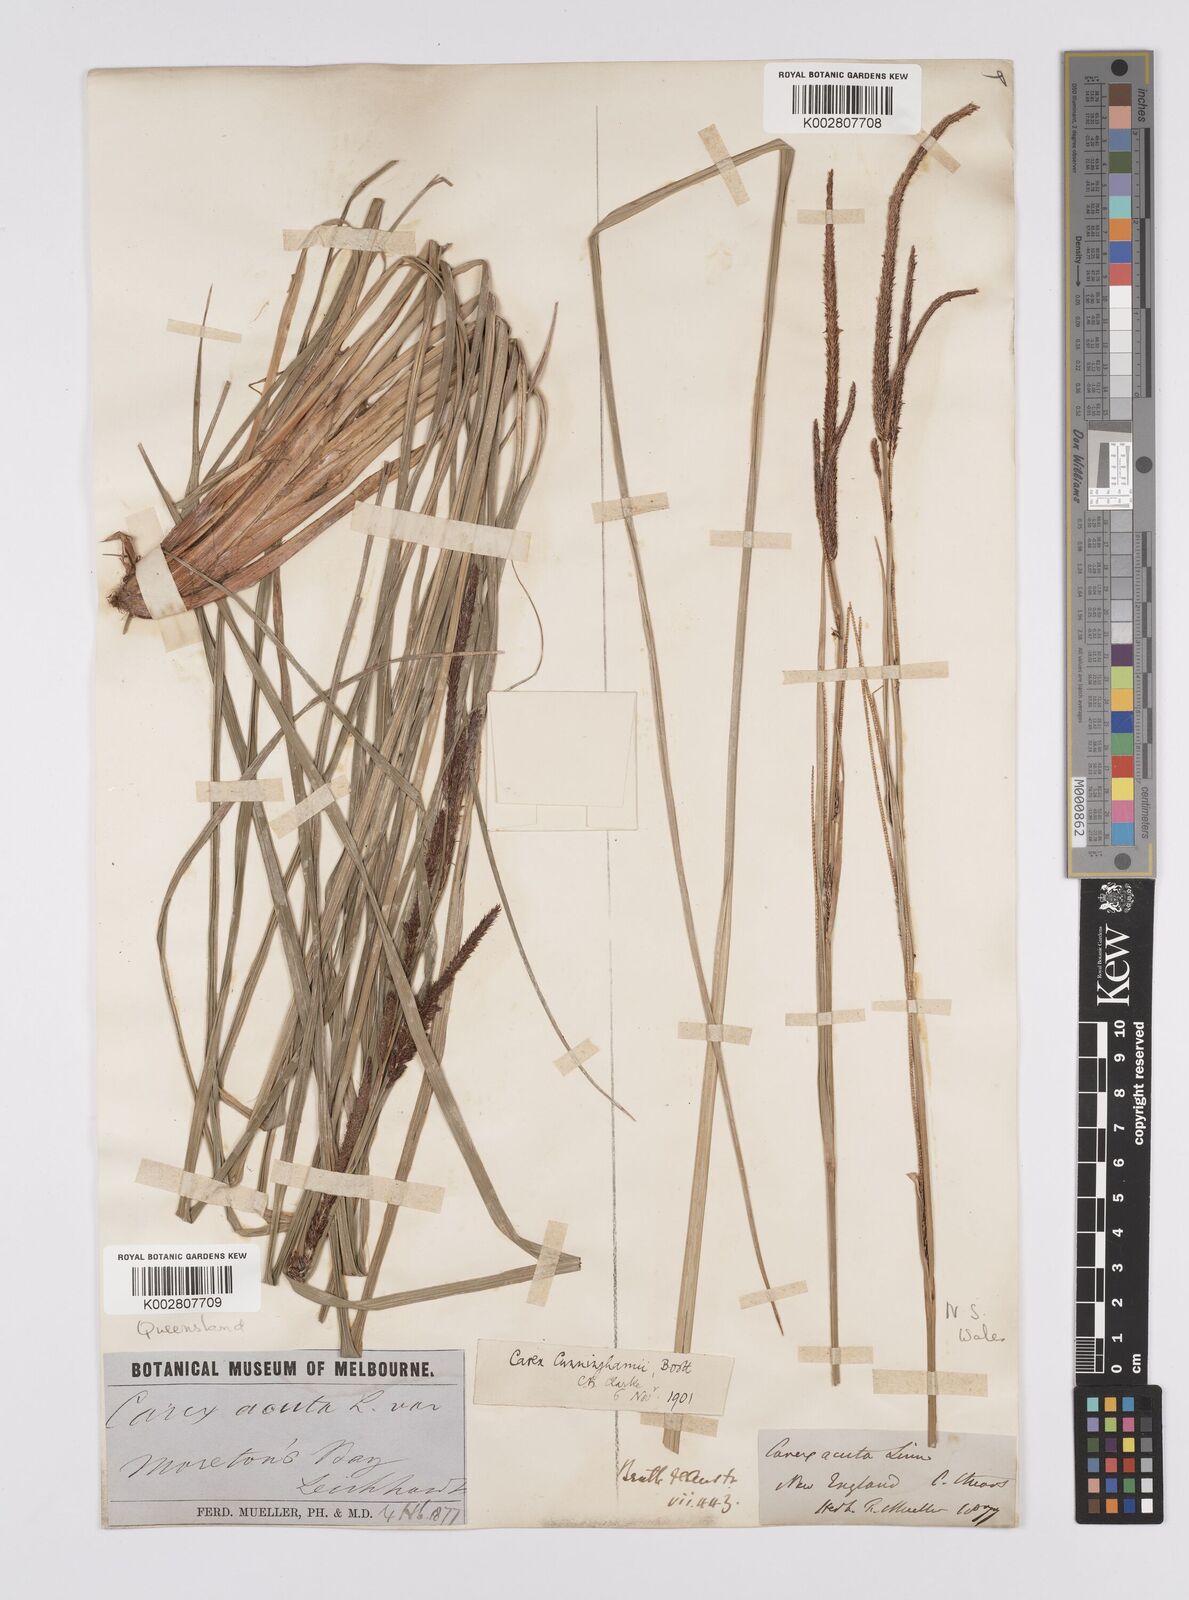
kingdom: Plantae
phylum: Tracheophyta
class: Liliopsida
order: Poales
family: Cyperaceae
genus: Carex
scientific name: Carex polyantha
